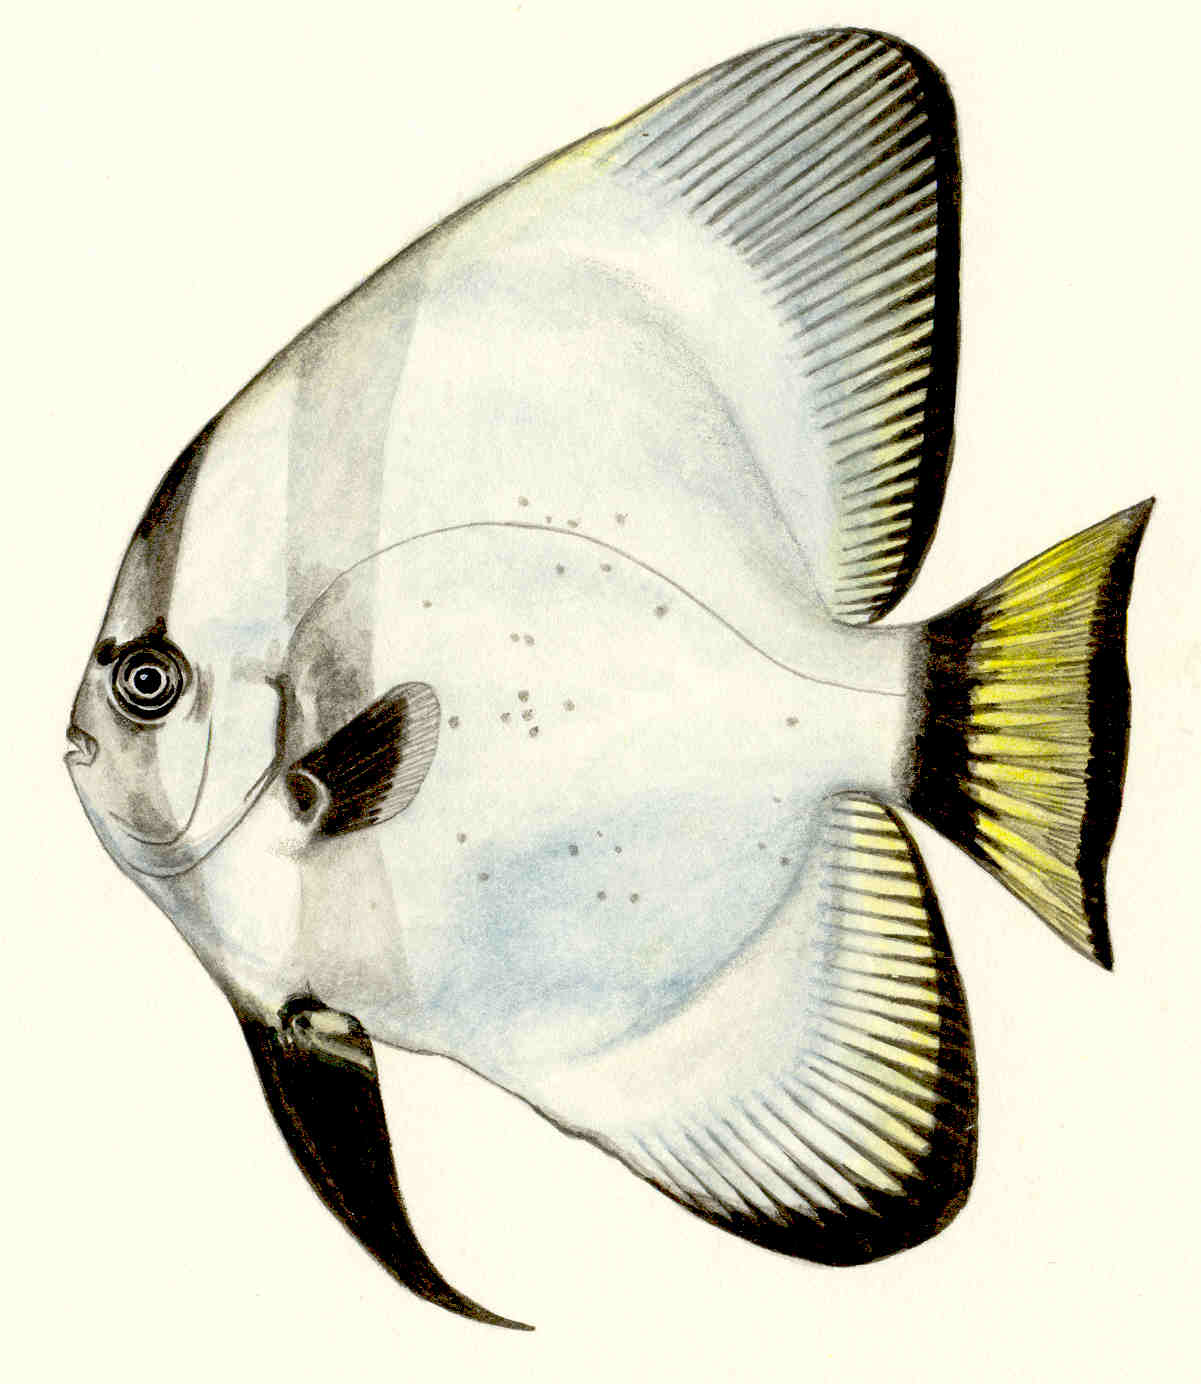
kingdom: Animalia
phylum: Chordata
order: Perciformes
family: Ephippidae
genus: Platax
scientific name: Platax boersii
